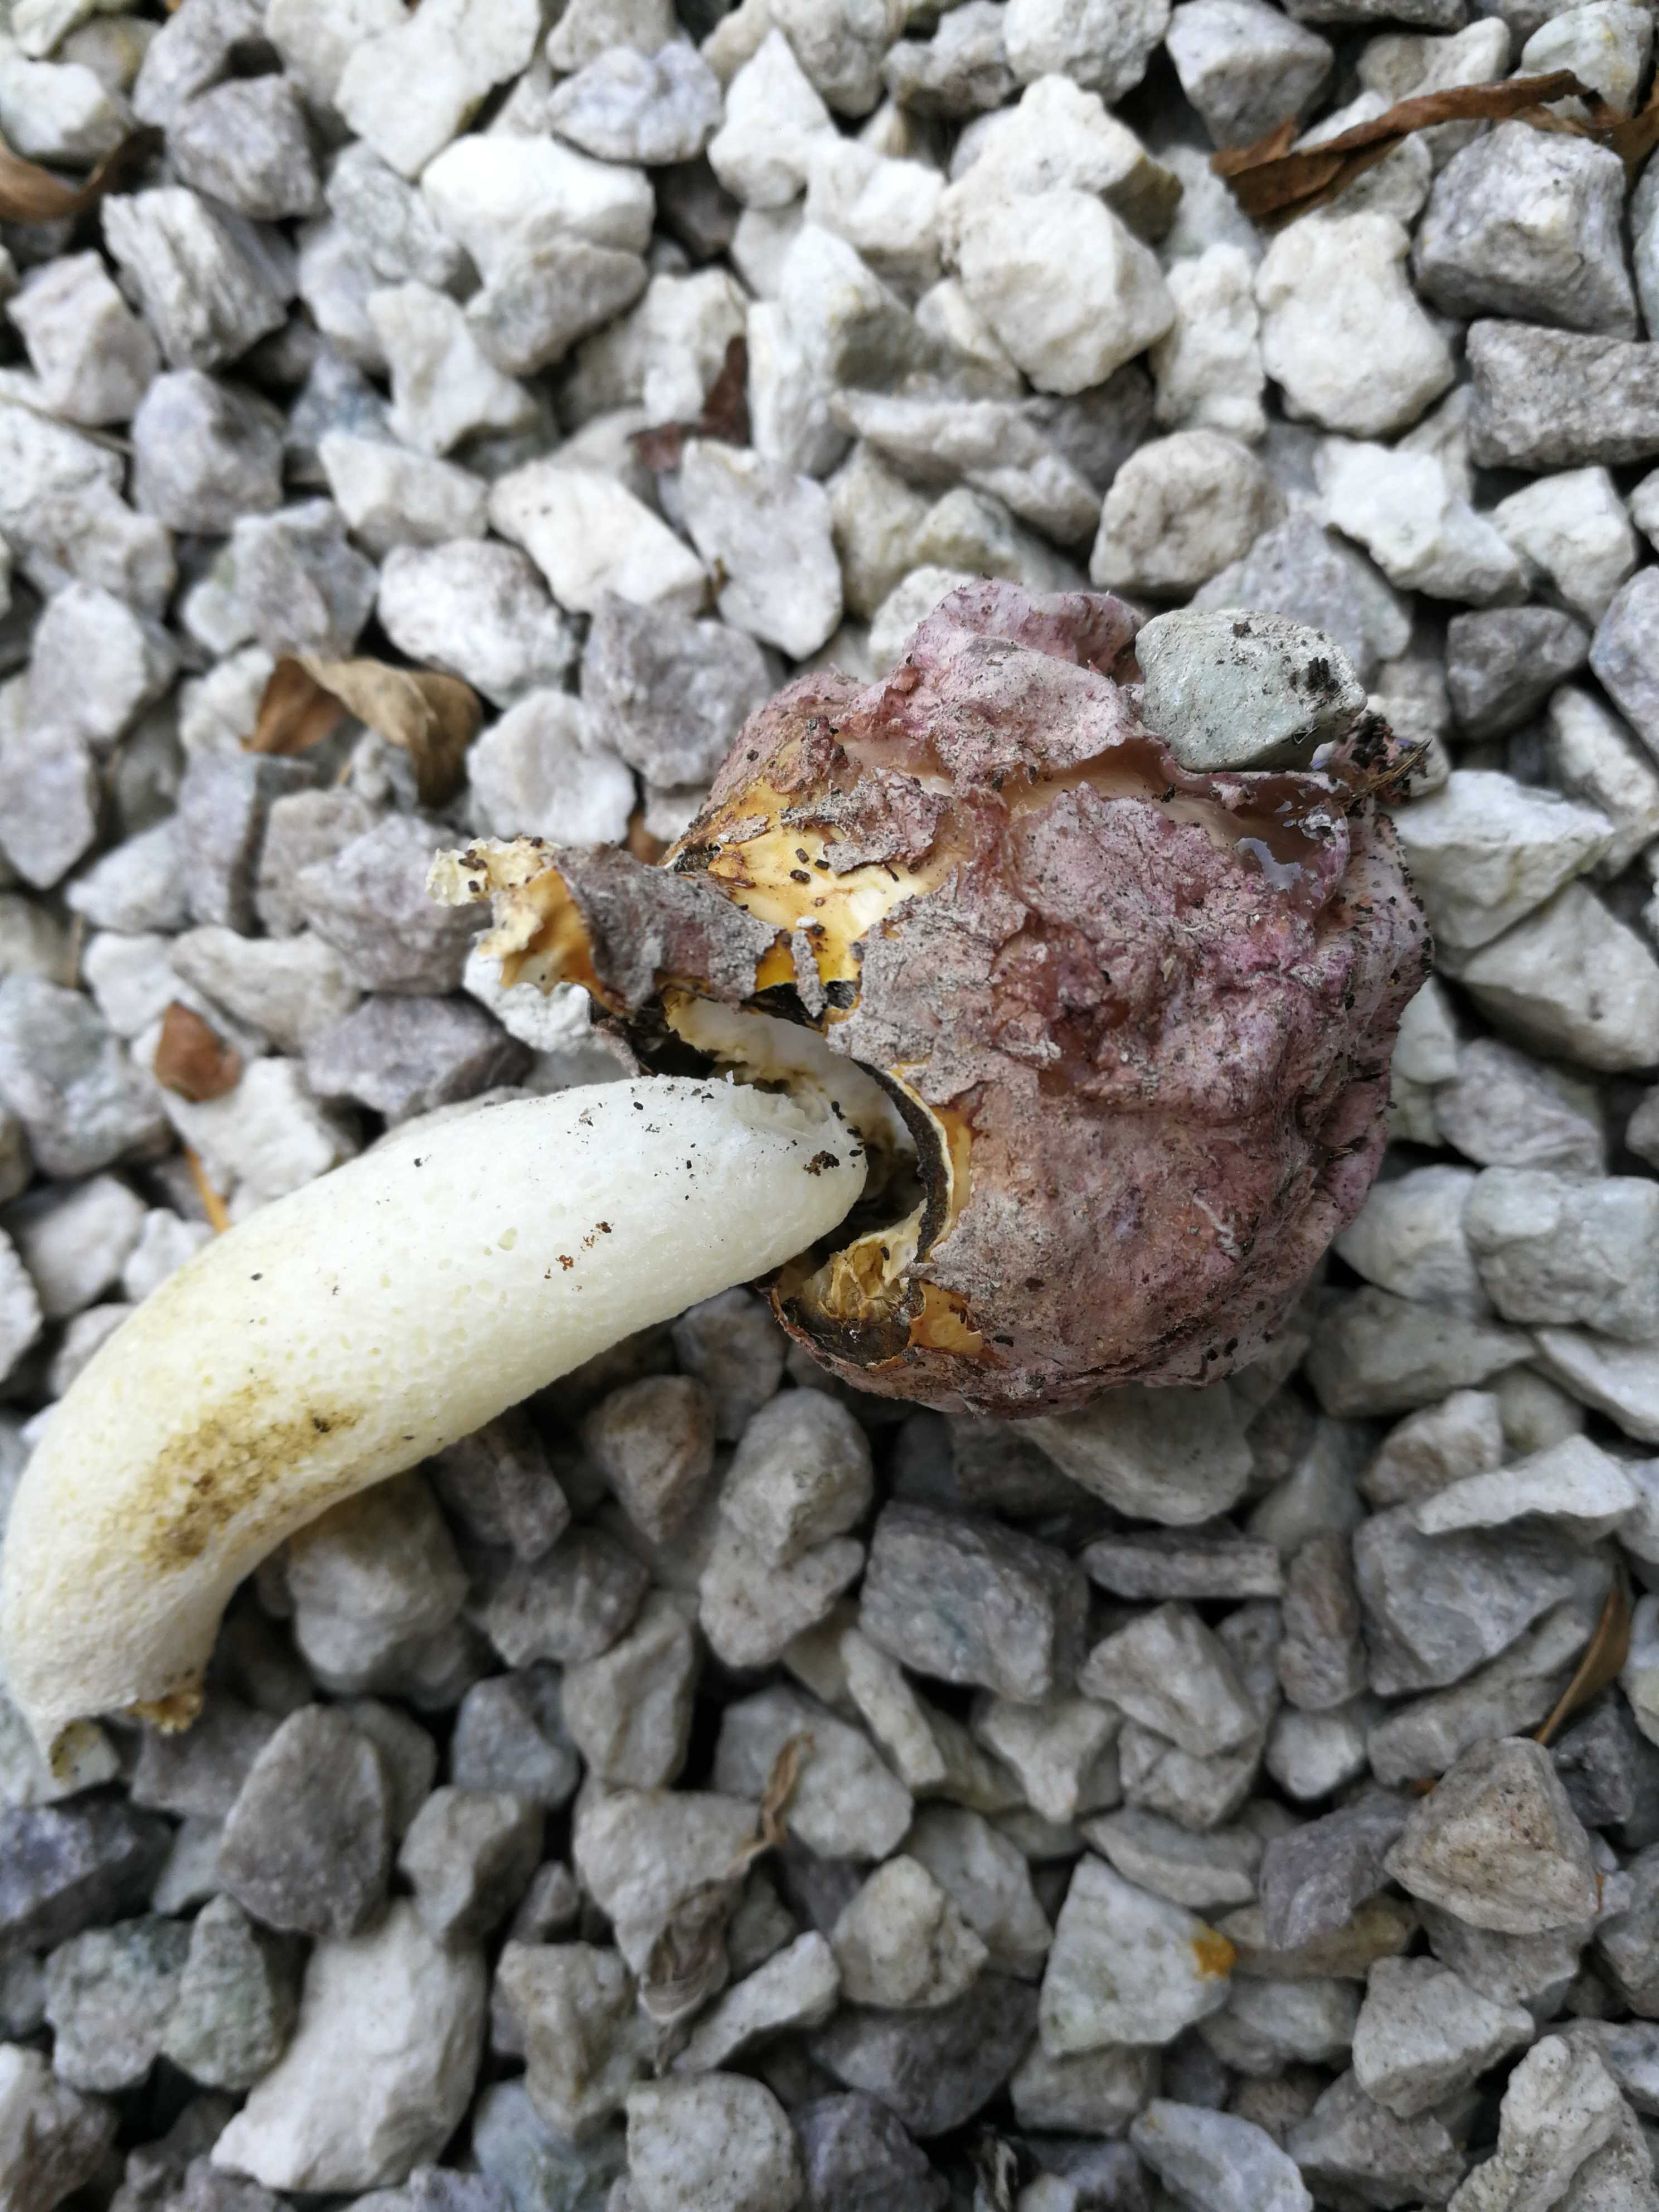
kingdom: Fungi
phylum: Basidiomycota
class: Agaricomycetes
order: Phallales
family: Phallaceae
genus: Phallus
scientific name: Phallus hadriani
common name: sand-stinksvamp
